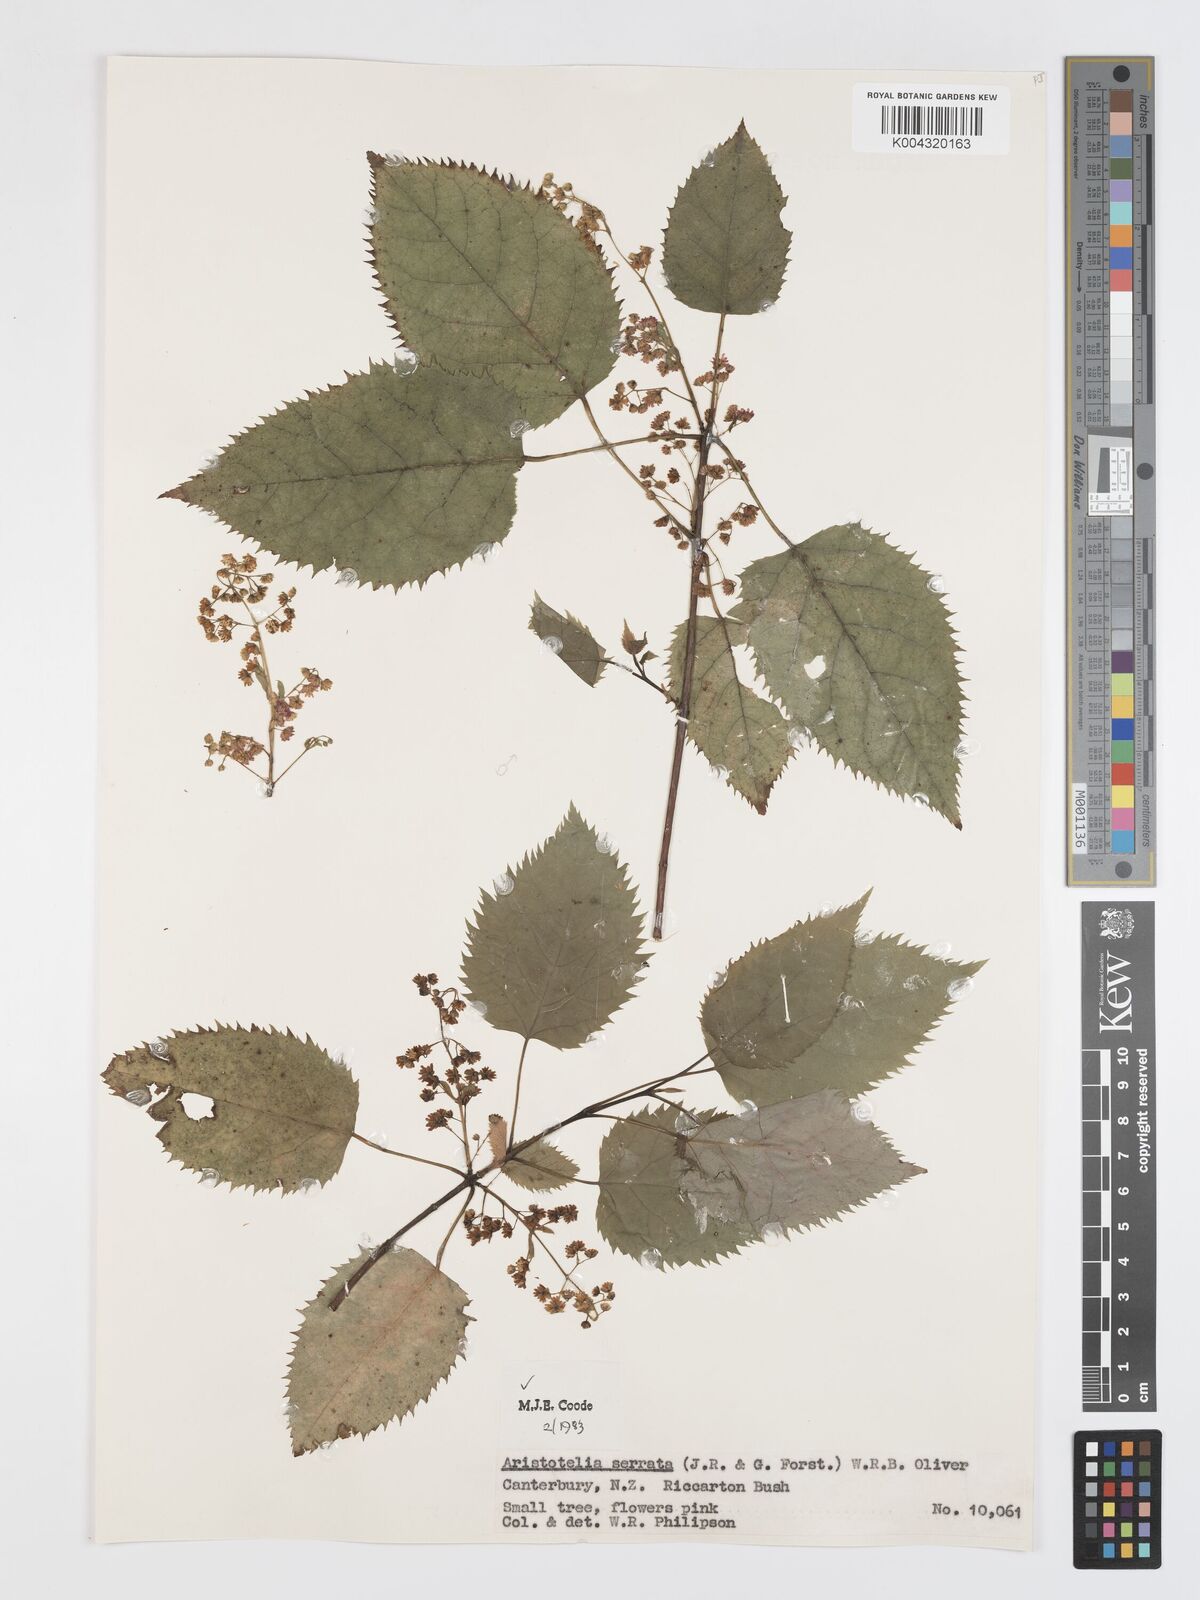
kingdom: Plantae
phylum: Tracheophyta
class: Magnoliopsida
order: Oxalidales
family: Elaeocarpaceae
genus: Aristotelia
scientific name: Aristotelia serrata
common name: New zealand wineberry
